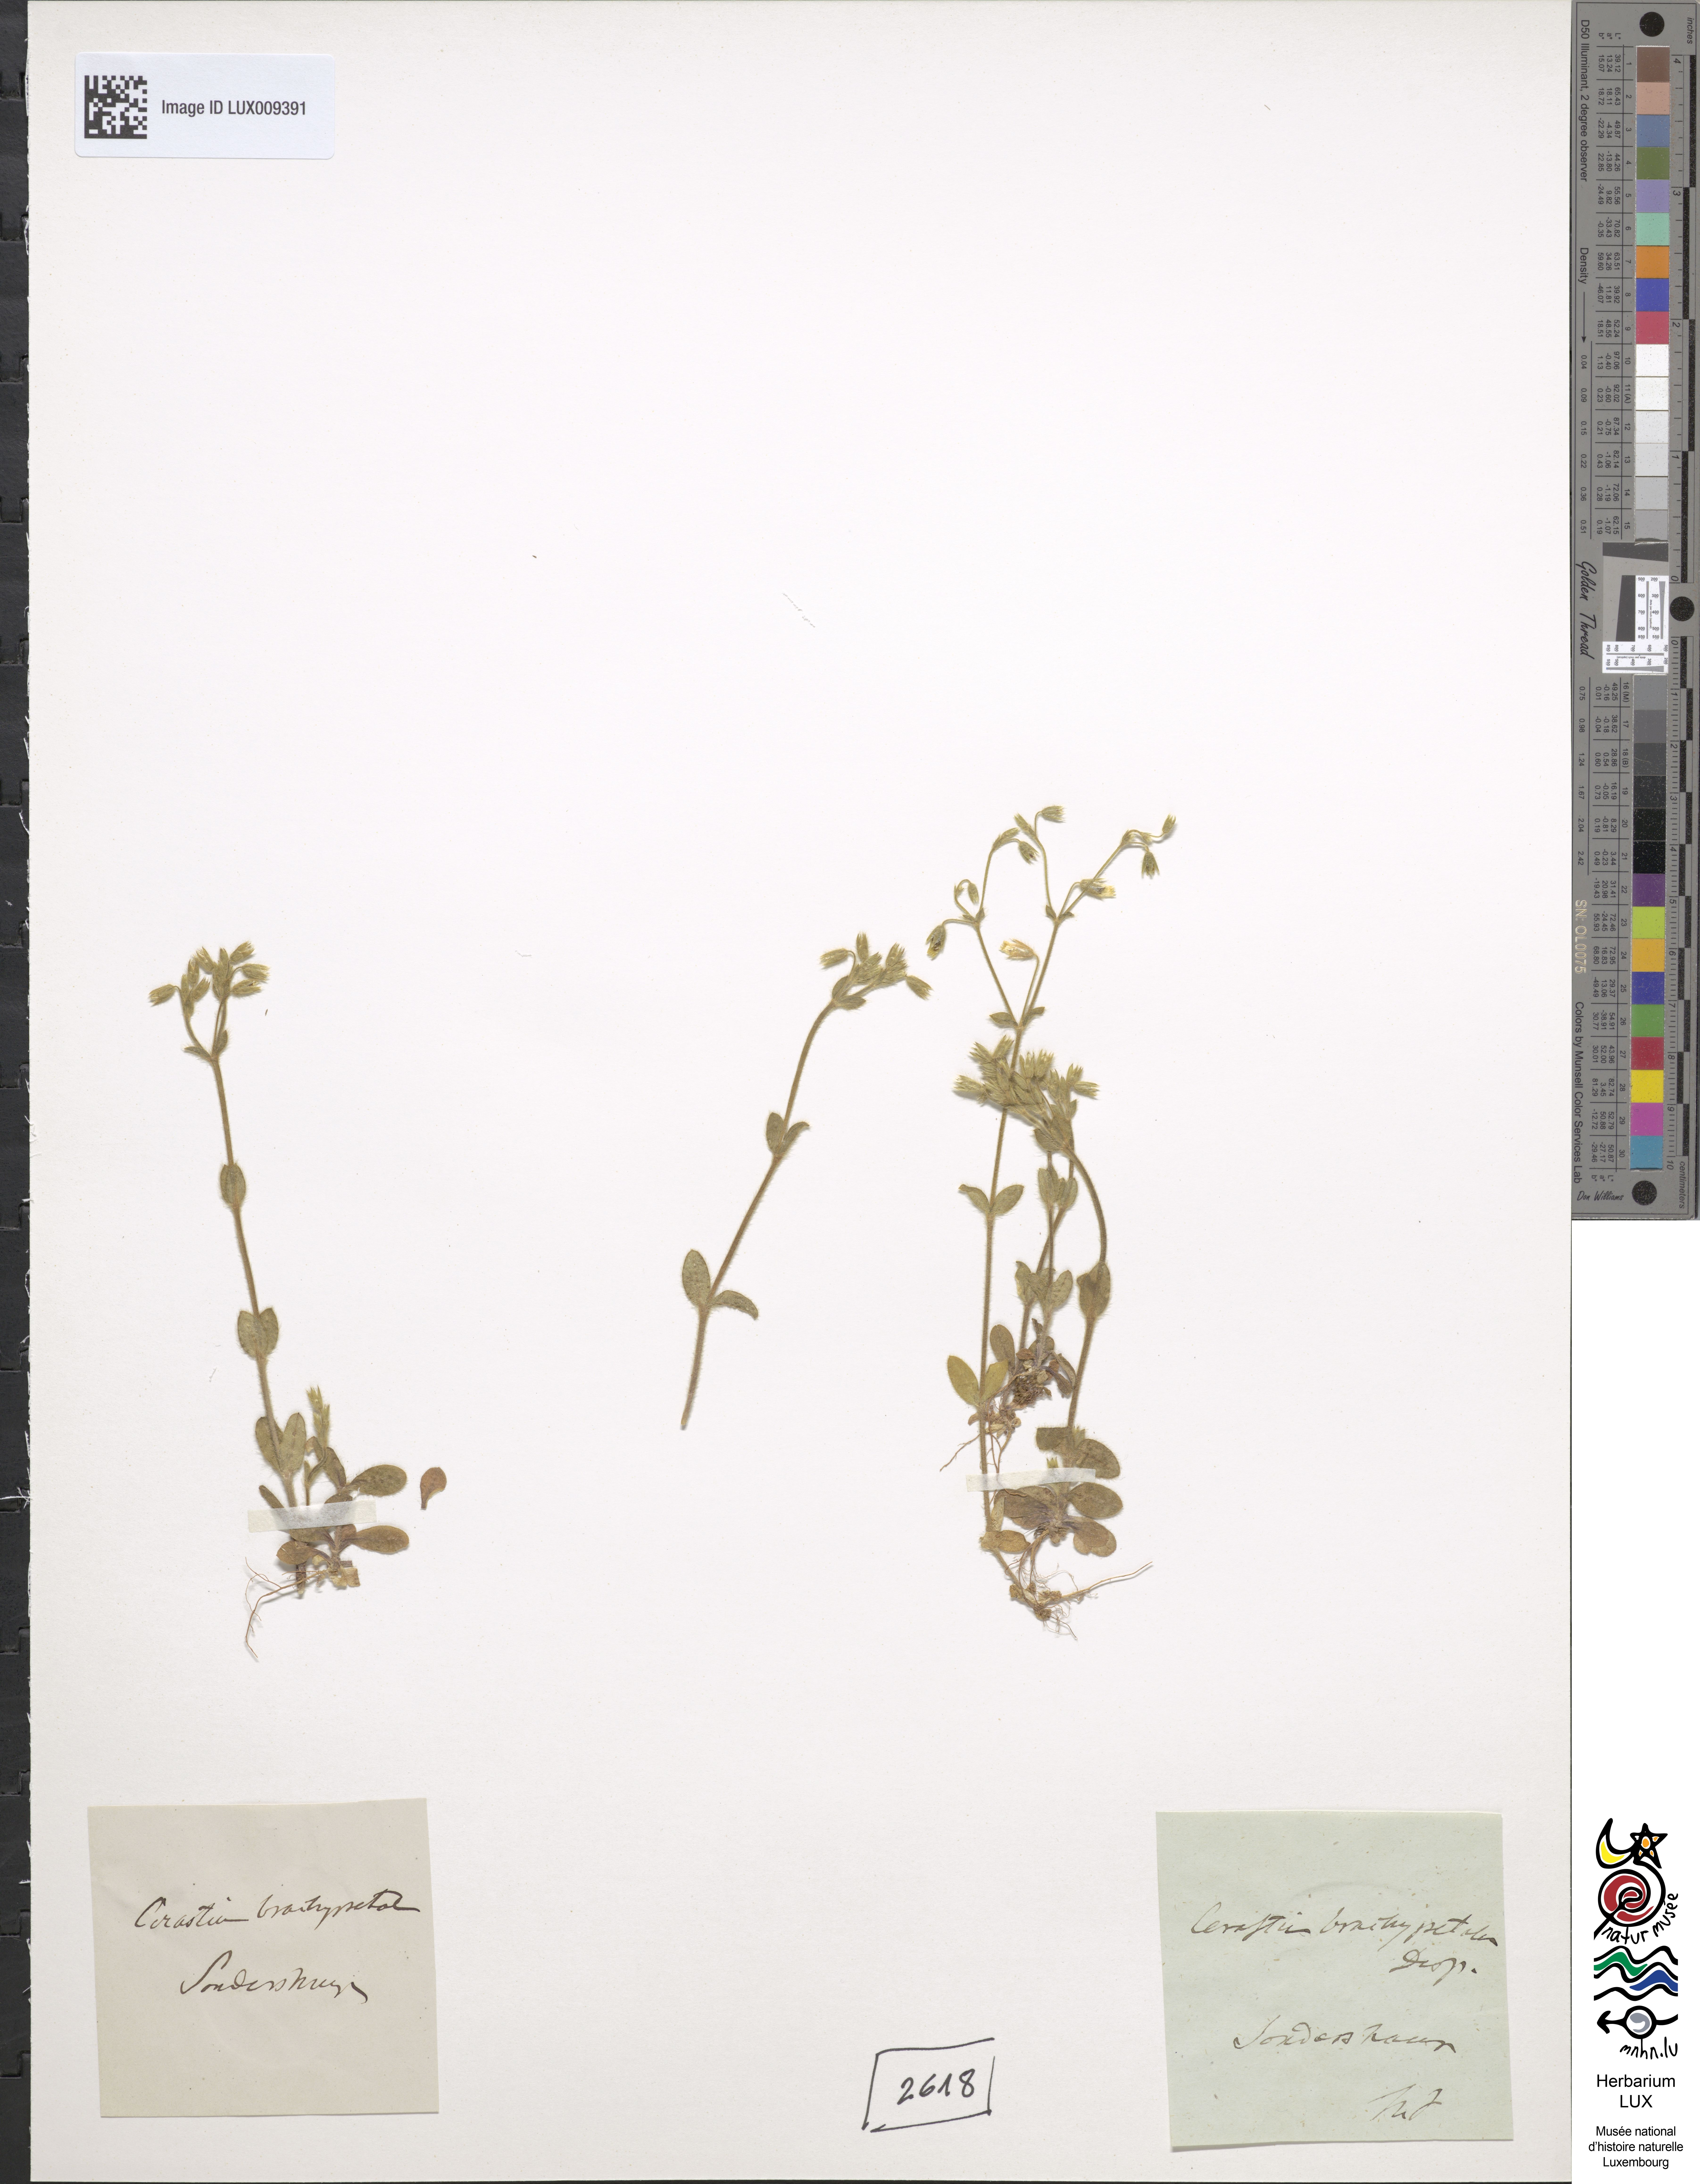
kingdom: Plantae
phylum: Tracheophyta
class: Magnoliopsida
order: Caryophyllales
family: Caryophyllaceae
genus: Cerastium
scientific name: Cerastium brachypetalum
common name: Grey mouse-ear
